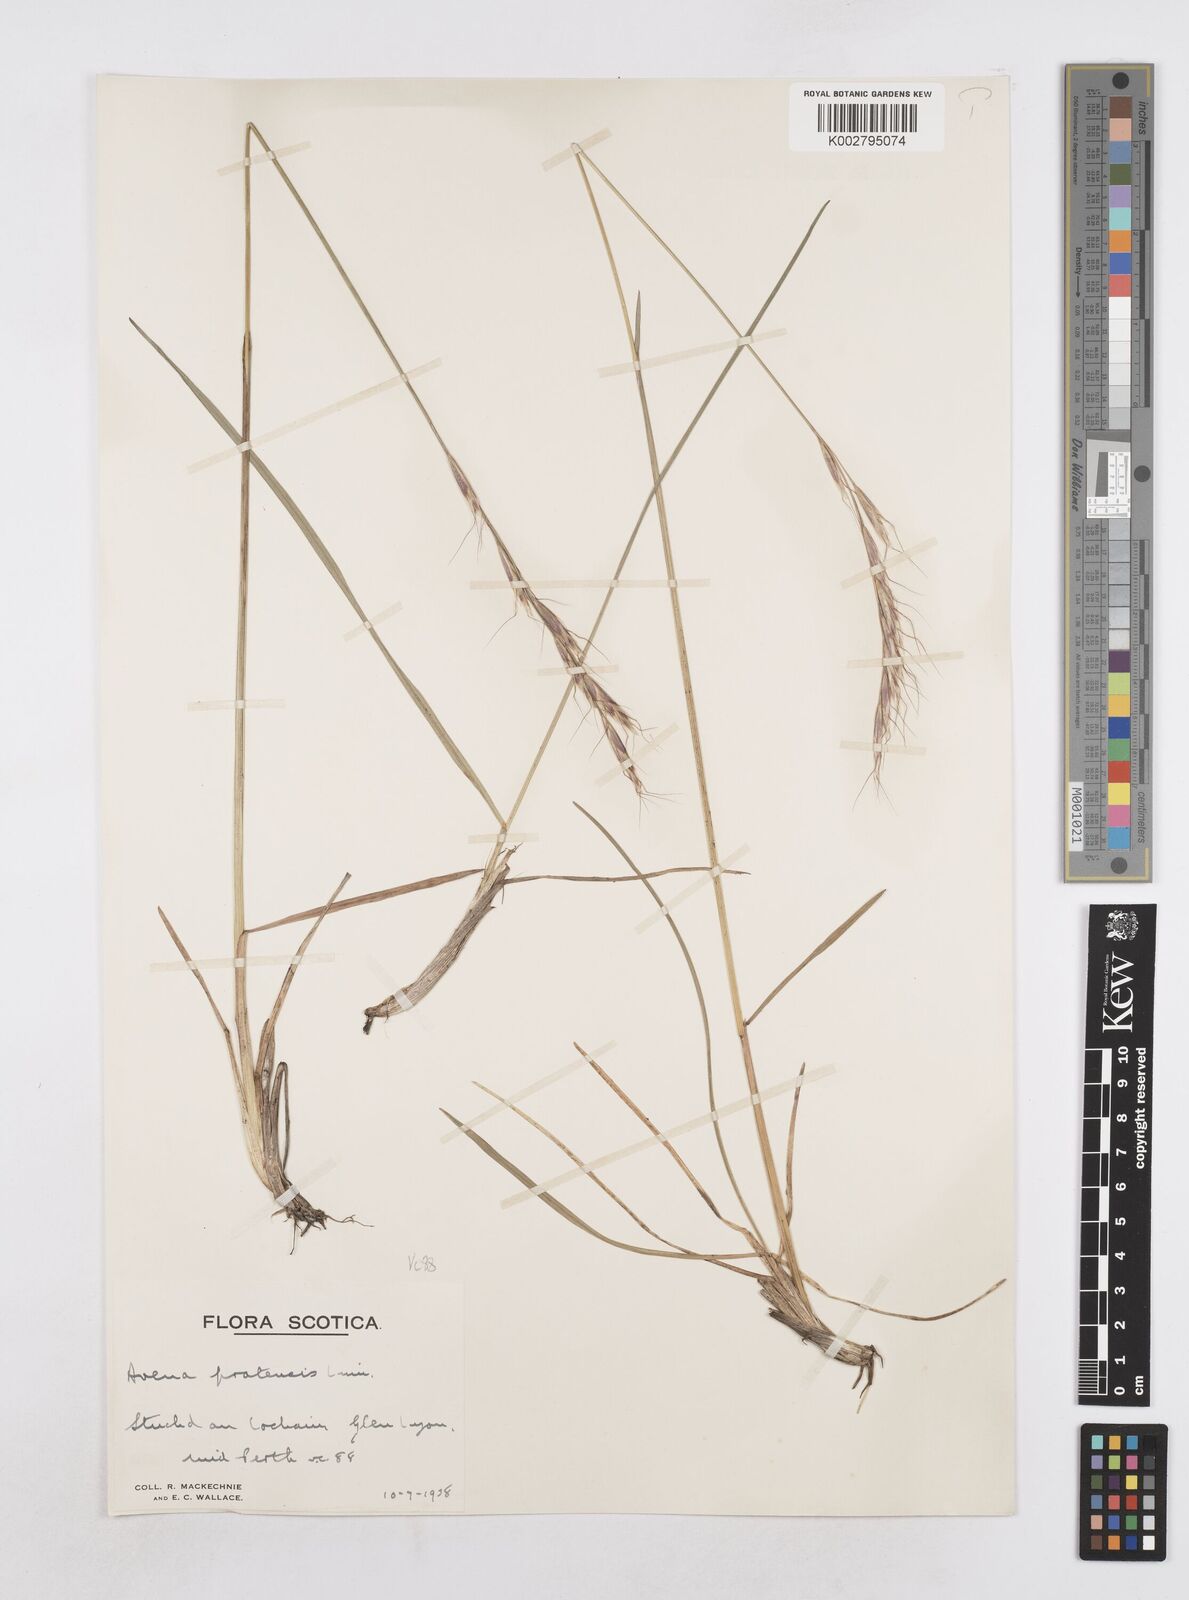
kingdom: Plantae
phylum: Tracheophyta
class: Liliopsida
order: Poales
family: Poaceae
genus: Helictotrichon
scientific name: Helictotrichon
